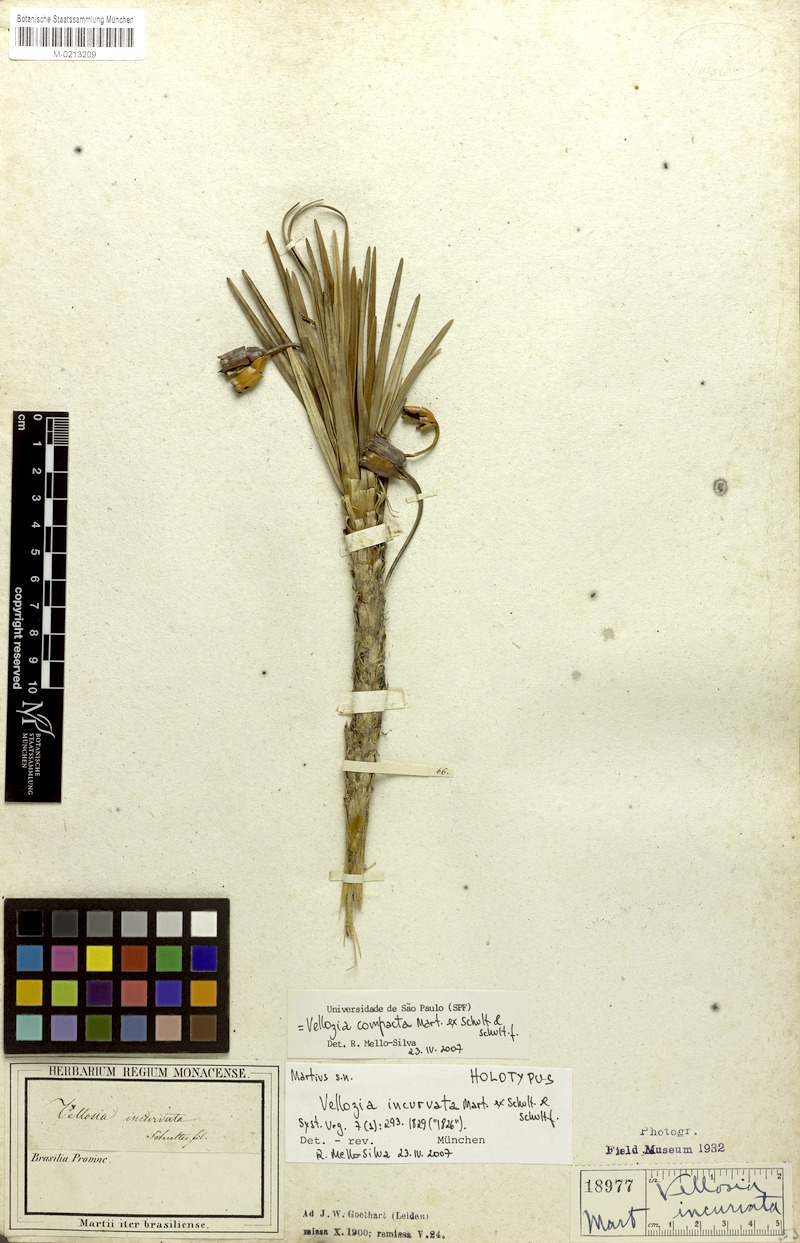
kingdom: Plantae
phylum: Tracheophyta
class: Liliopsida
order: Pandanales
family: Velloziaceae
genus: Vellozia
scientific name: Vellozia compacta
